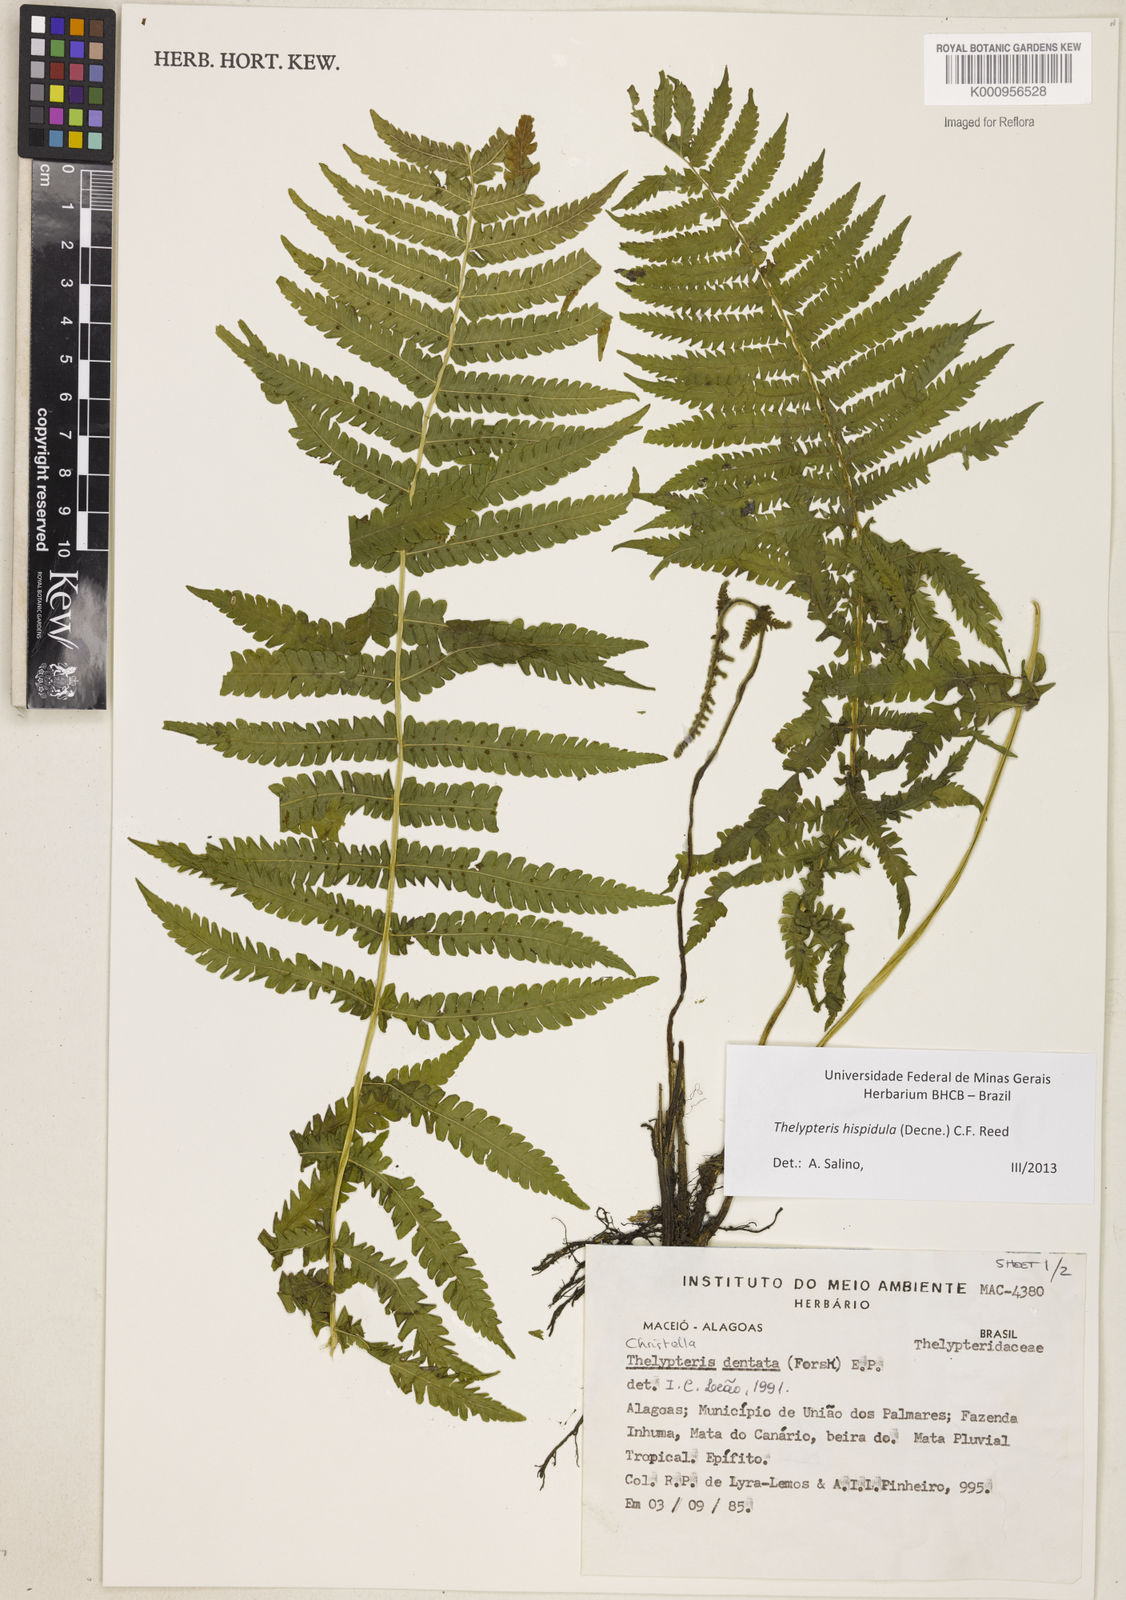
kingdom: Plantae
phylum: Tracheophyta
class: Polypodiopsida
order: Polypodiales
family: Thelypteridaceae
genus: Christella
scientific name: Christella hispidula
